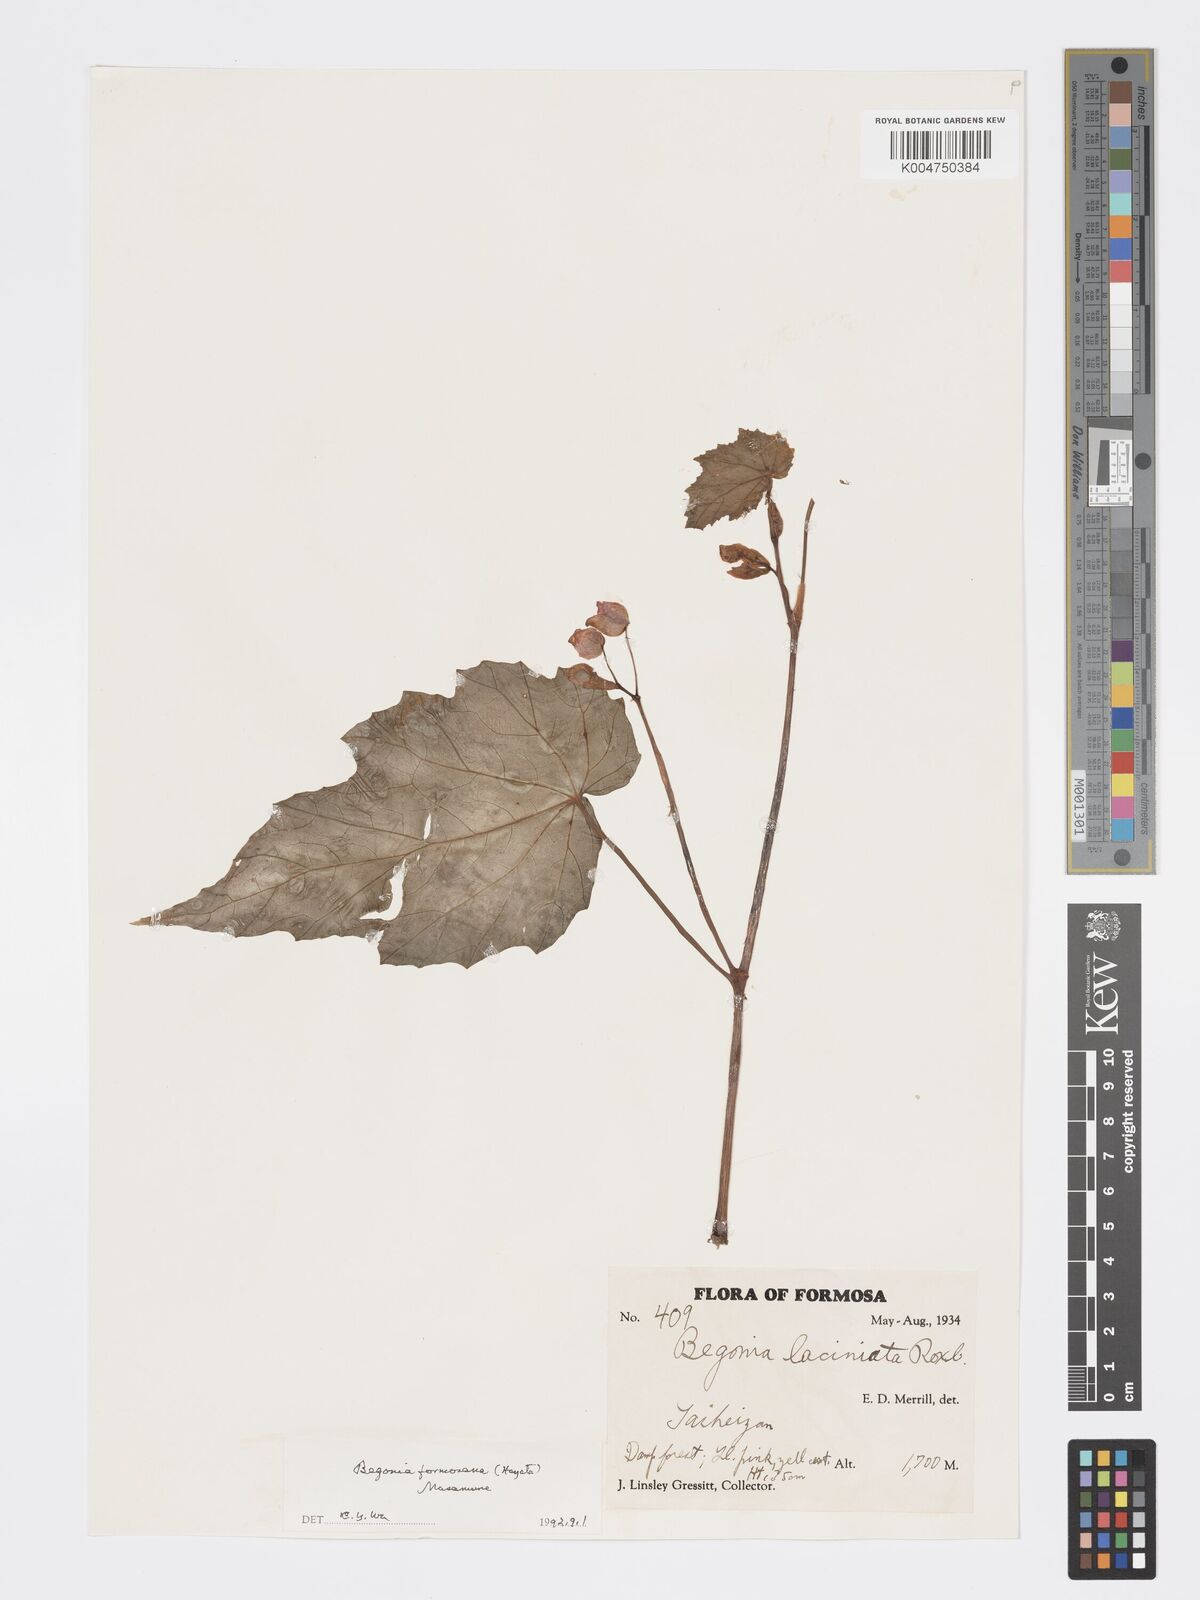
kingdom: Plantae
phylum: Tracheophyta
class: Magnoliopsida
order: Cucurbitales
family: Begoniaceae
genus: Begonia
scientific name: Begonia palmata
